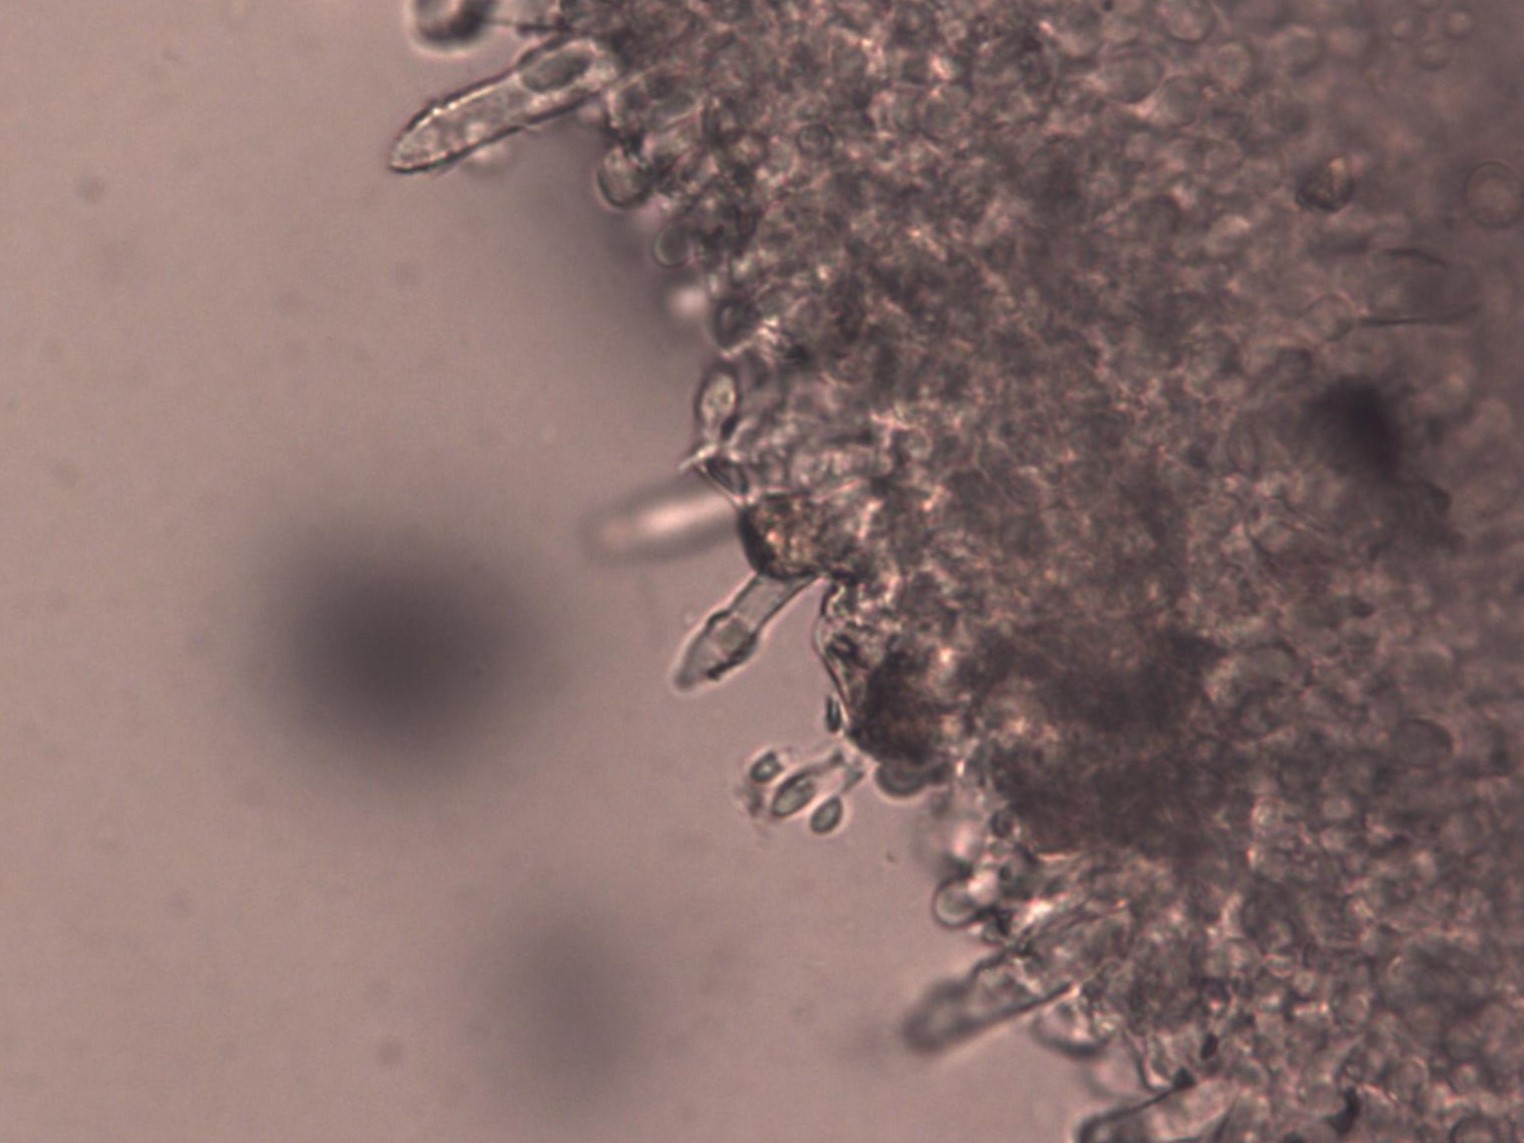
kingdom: Fungi
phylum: Basidiomycota
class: Agaricomycetes
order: Agaricales
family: Physalacriaceae
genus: Strobilurus
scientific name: Strobilurus tenacellus
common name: sommer-koglehat
